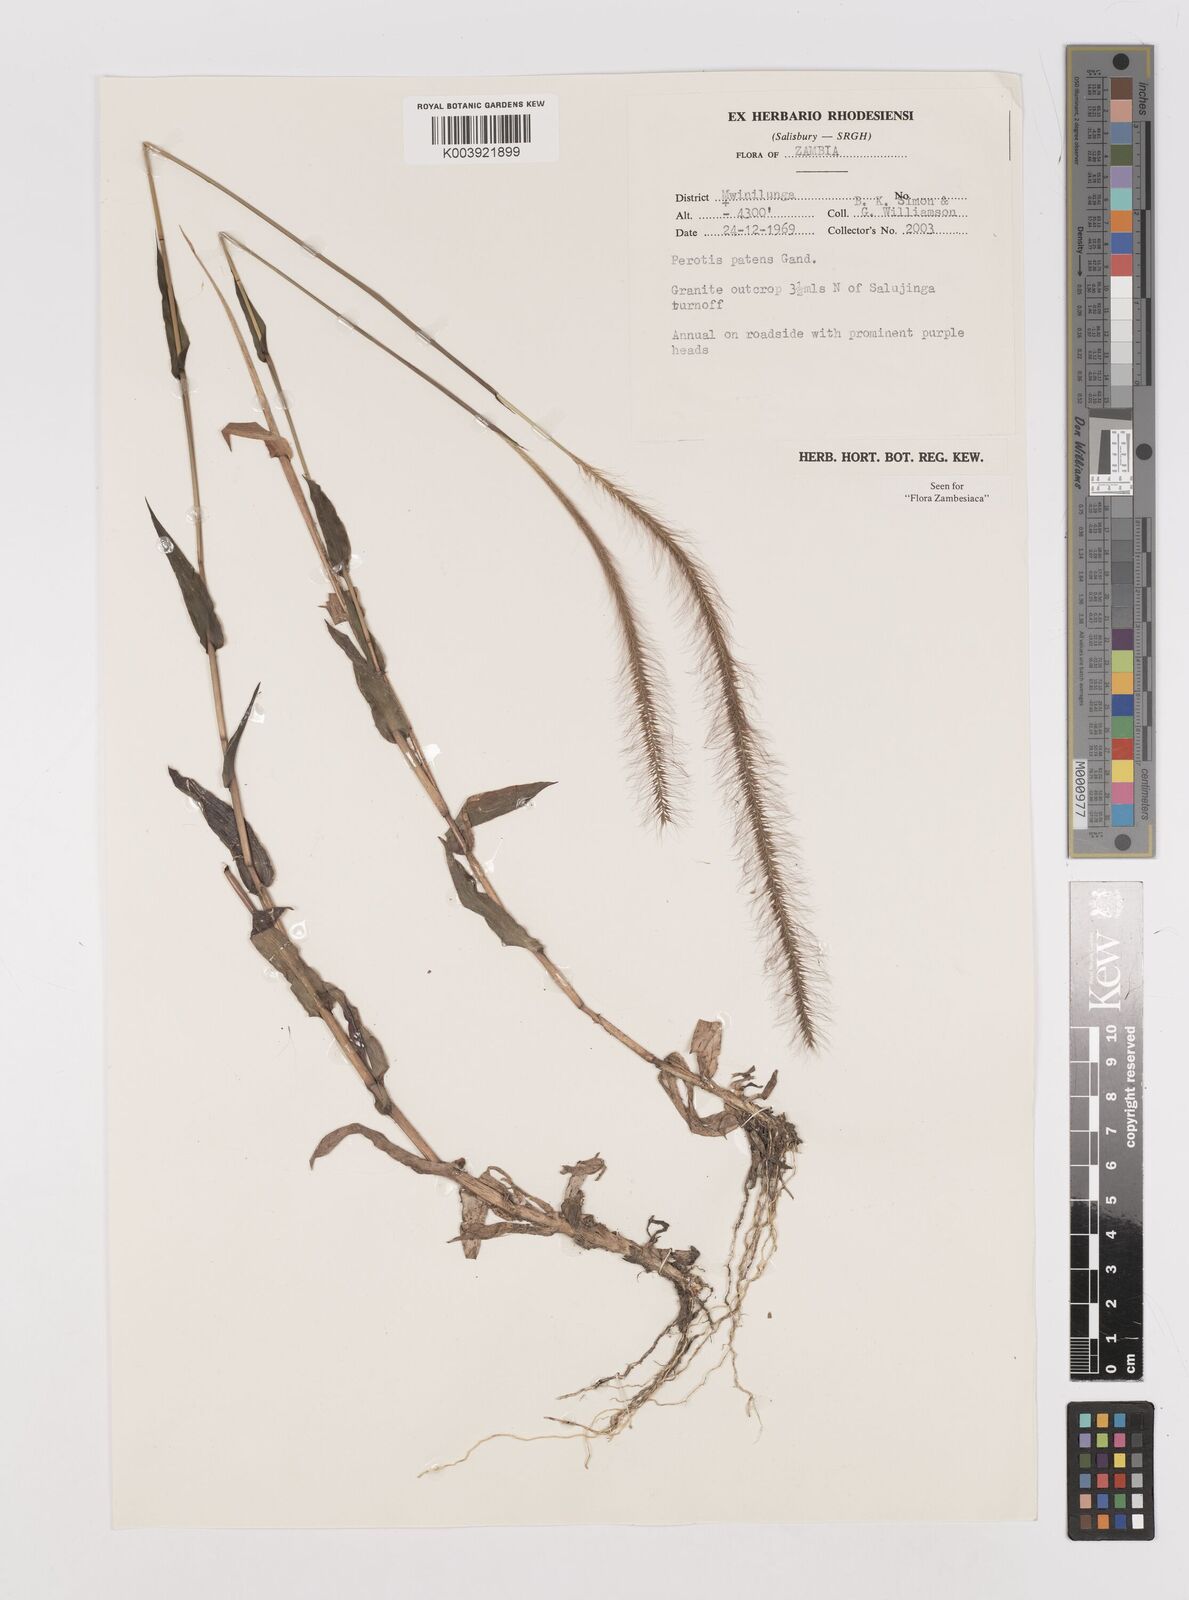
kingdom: Plantae
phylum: Tracheophyta
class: Liliopsida
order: Poales
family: Poaceae
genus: Perotis
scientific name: Perotis patens
